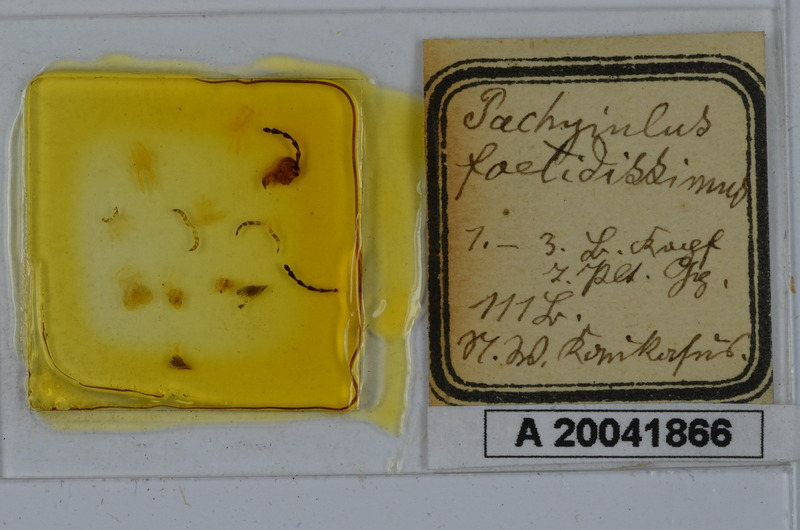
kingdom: Animalia
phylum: Arthropoda
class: Diplopoda
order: Julida
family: Julidae
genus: Pachyiulus
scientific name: Pachyiulus krivolutskyi
